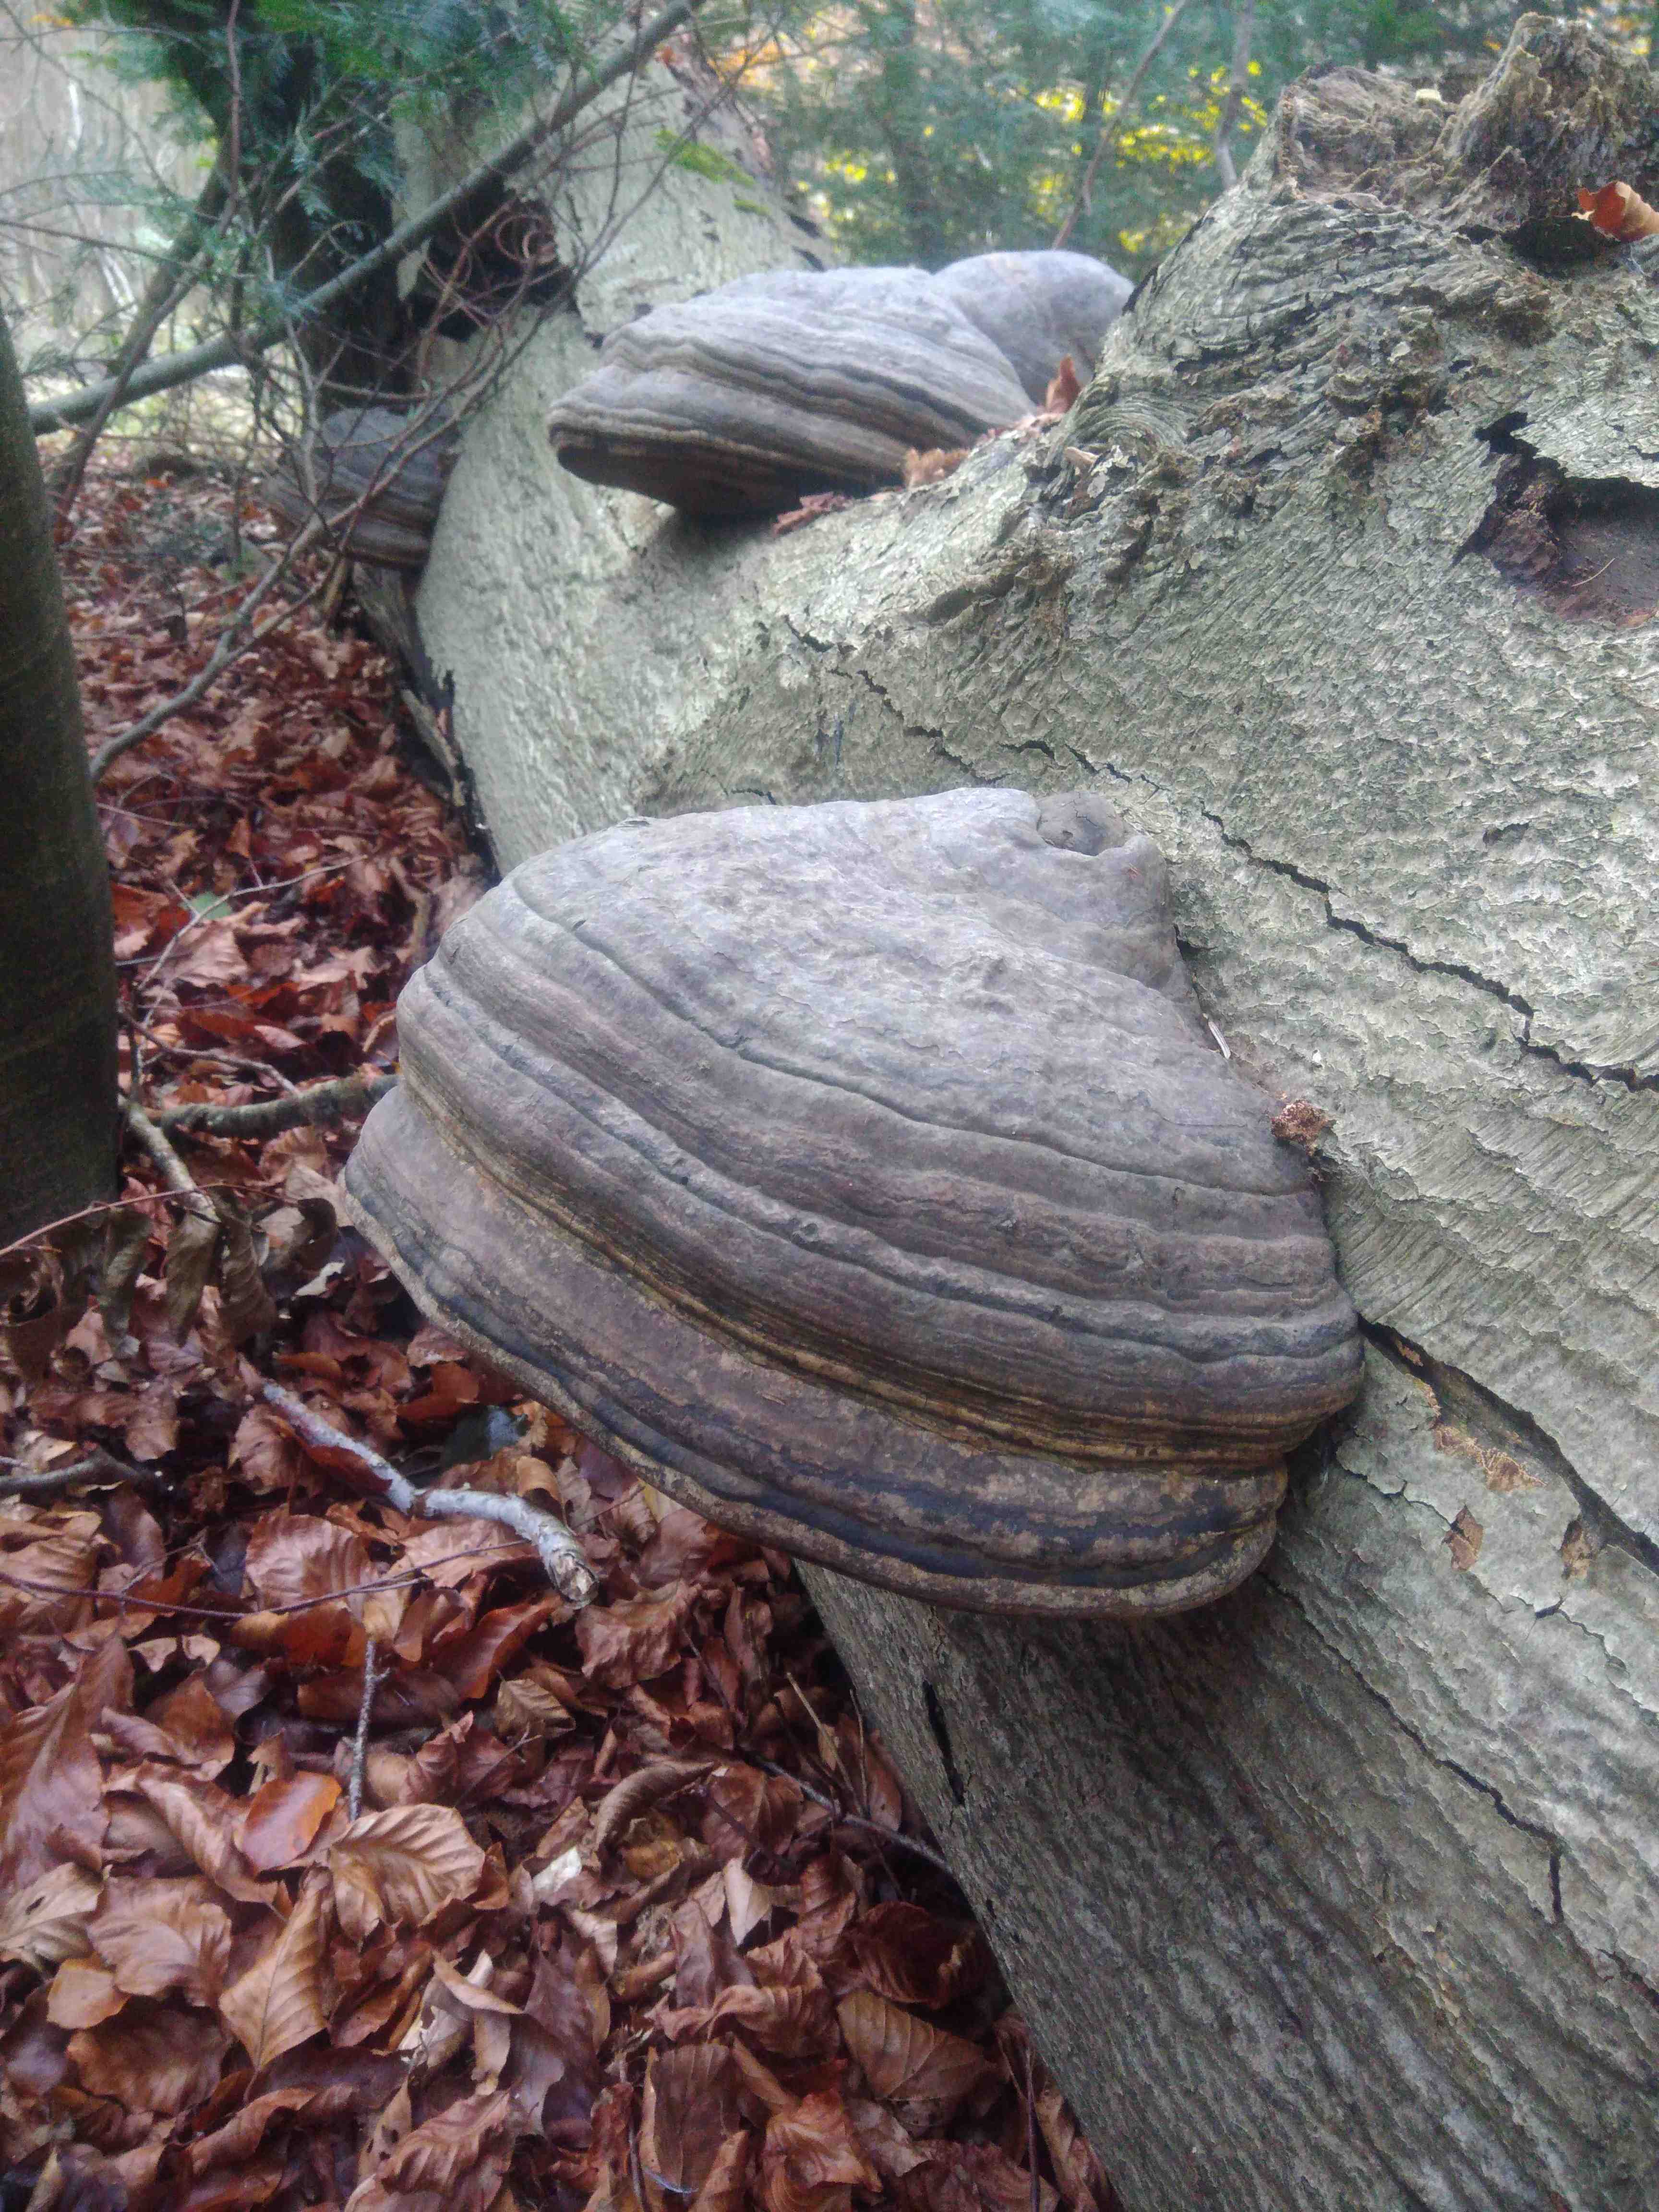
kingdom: Fungi
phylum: Basidiomycota
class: Agaricomycetes
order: Polyporales
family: Polyporaceae
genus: Fomes
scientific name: Fomes fomentarius
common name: tøndersvamp
